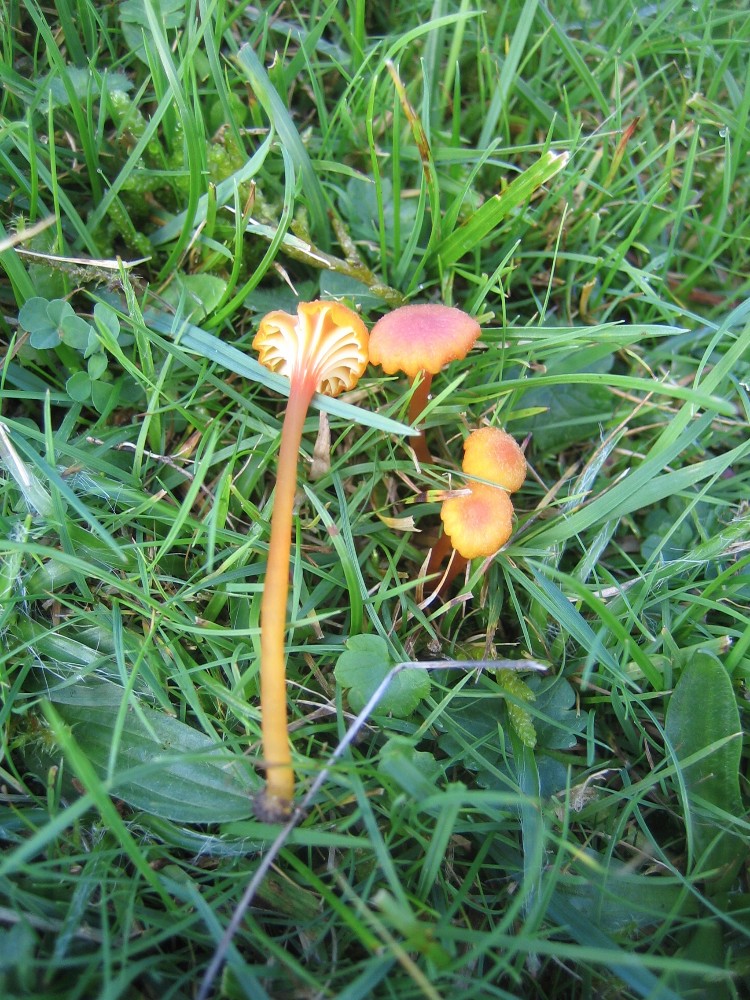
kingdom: Fungi
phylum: Basidiomycota
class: Agaricomycetes
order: Agaricales
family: Hygrophoraceae
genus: Hygrocybe
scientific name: Hygrocybe cantharellus
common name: kantarel-vokshat
